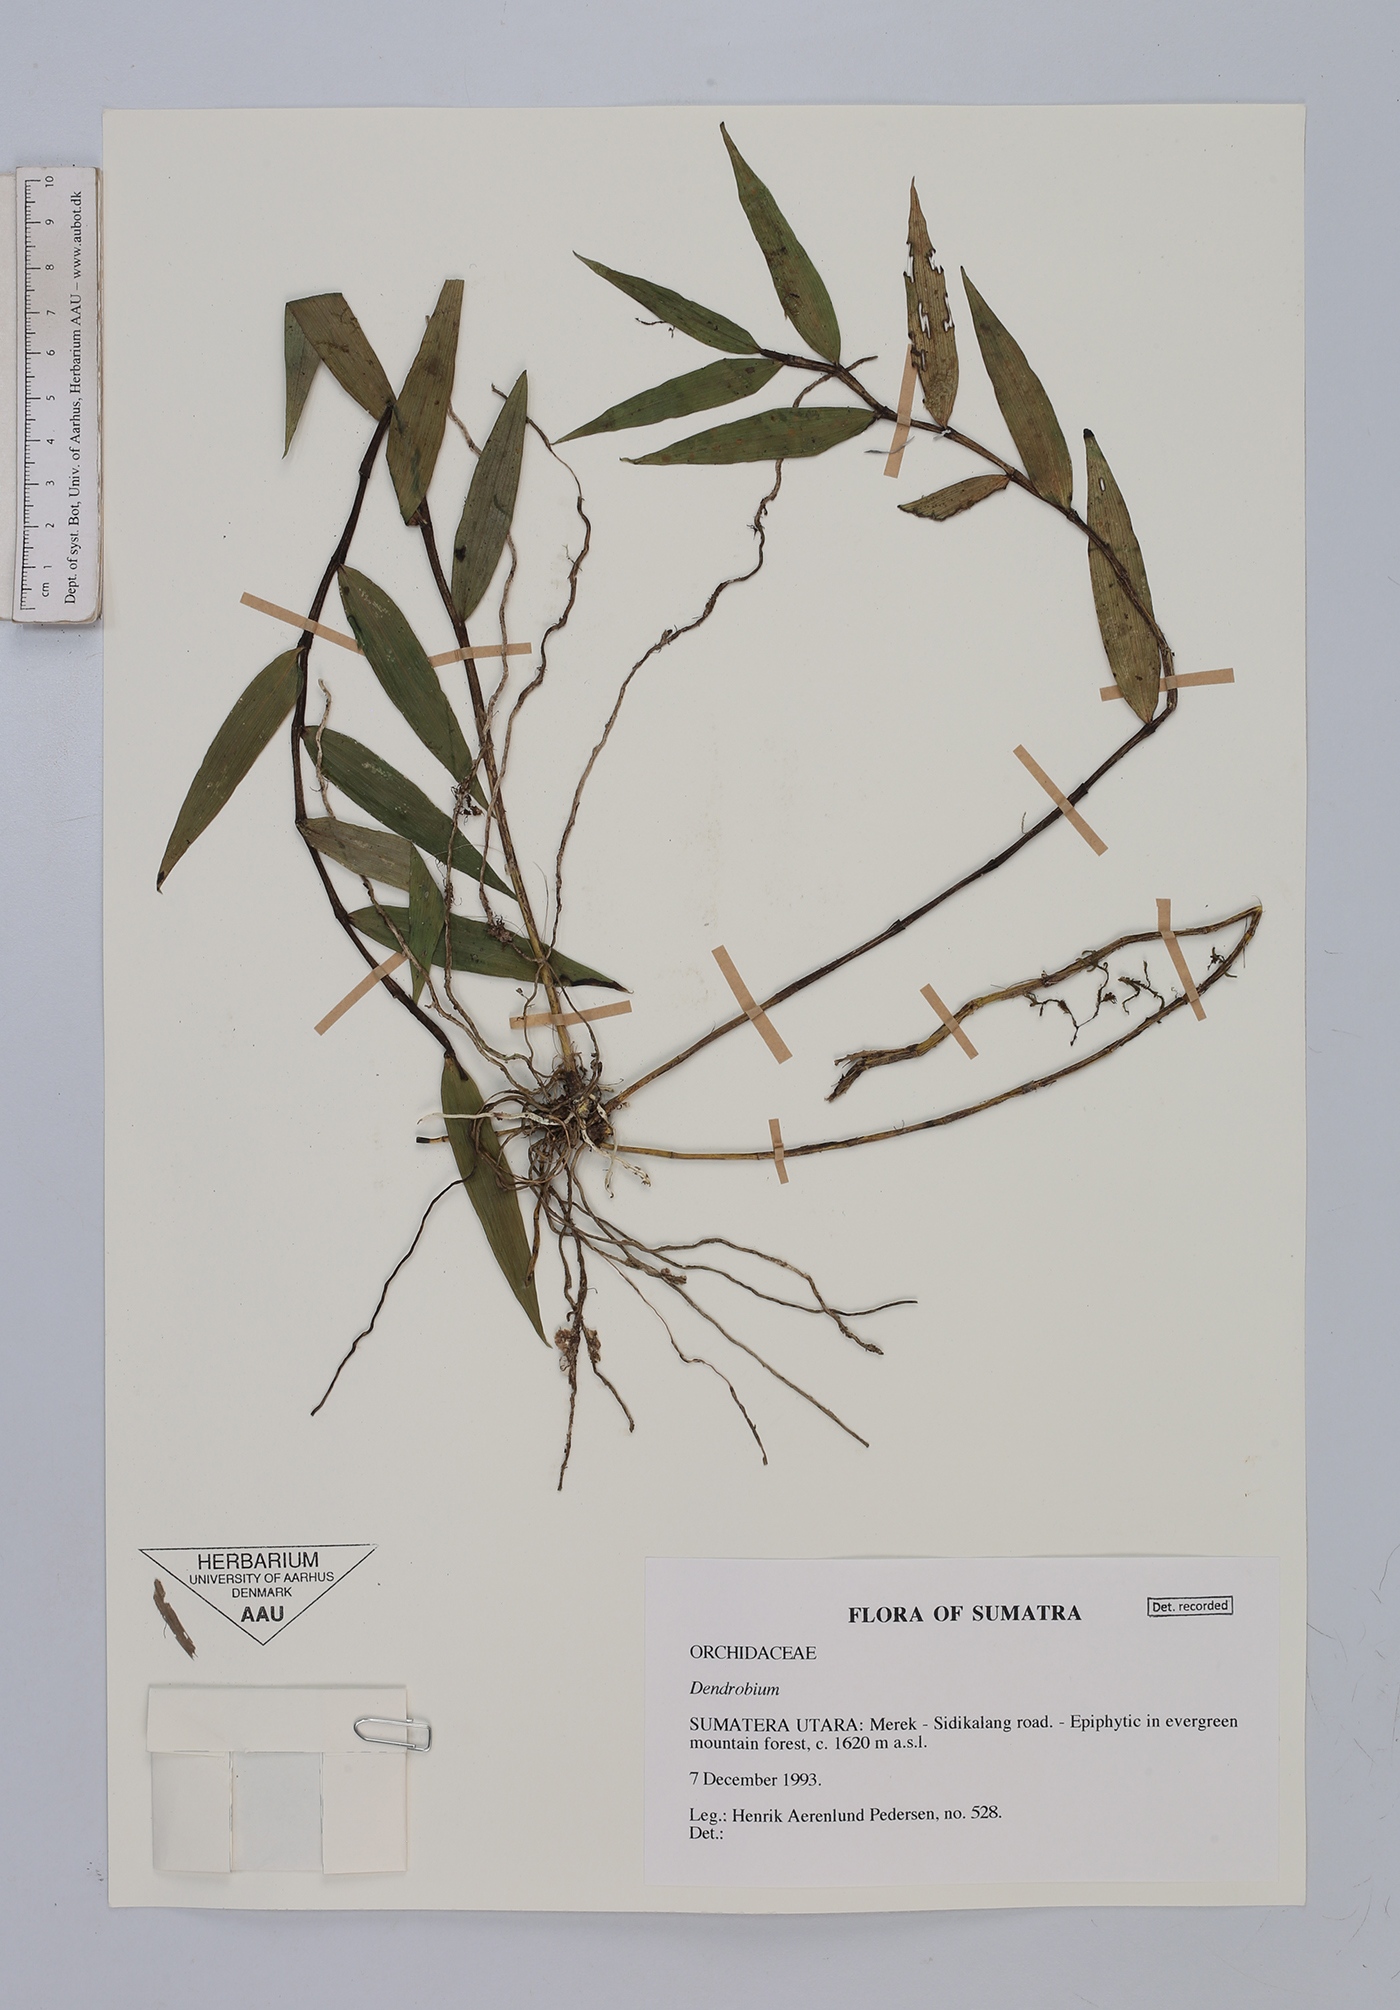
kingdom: Plantae
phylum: Tracheophyta
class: Liliopsida
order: Asparagales
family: Orchidaceae
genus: Dendrobium
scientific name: Dendrobium
